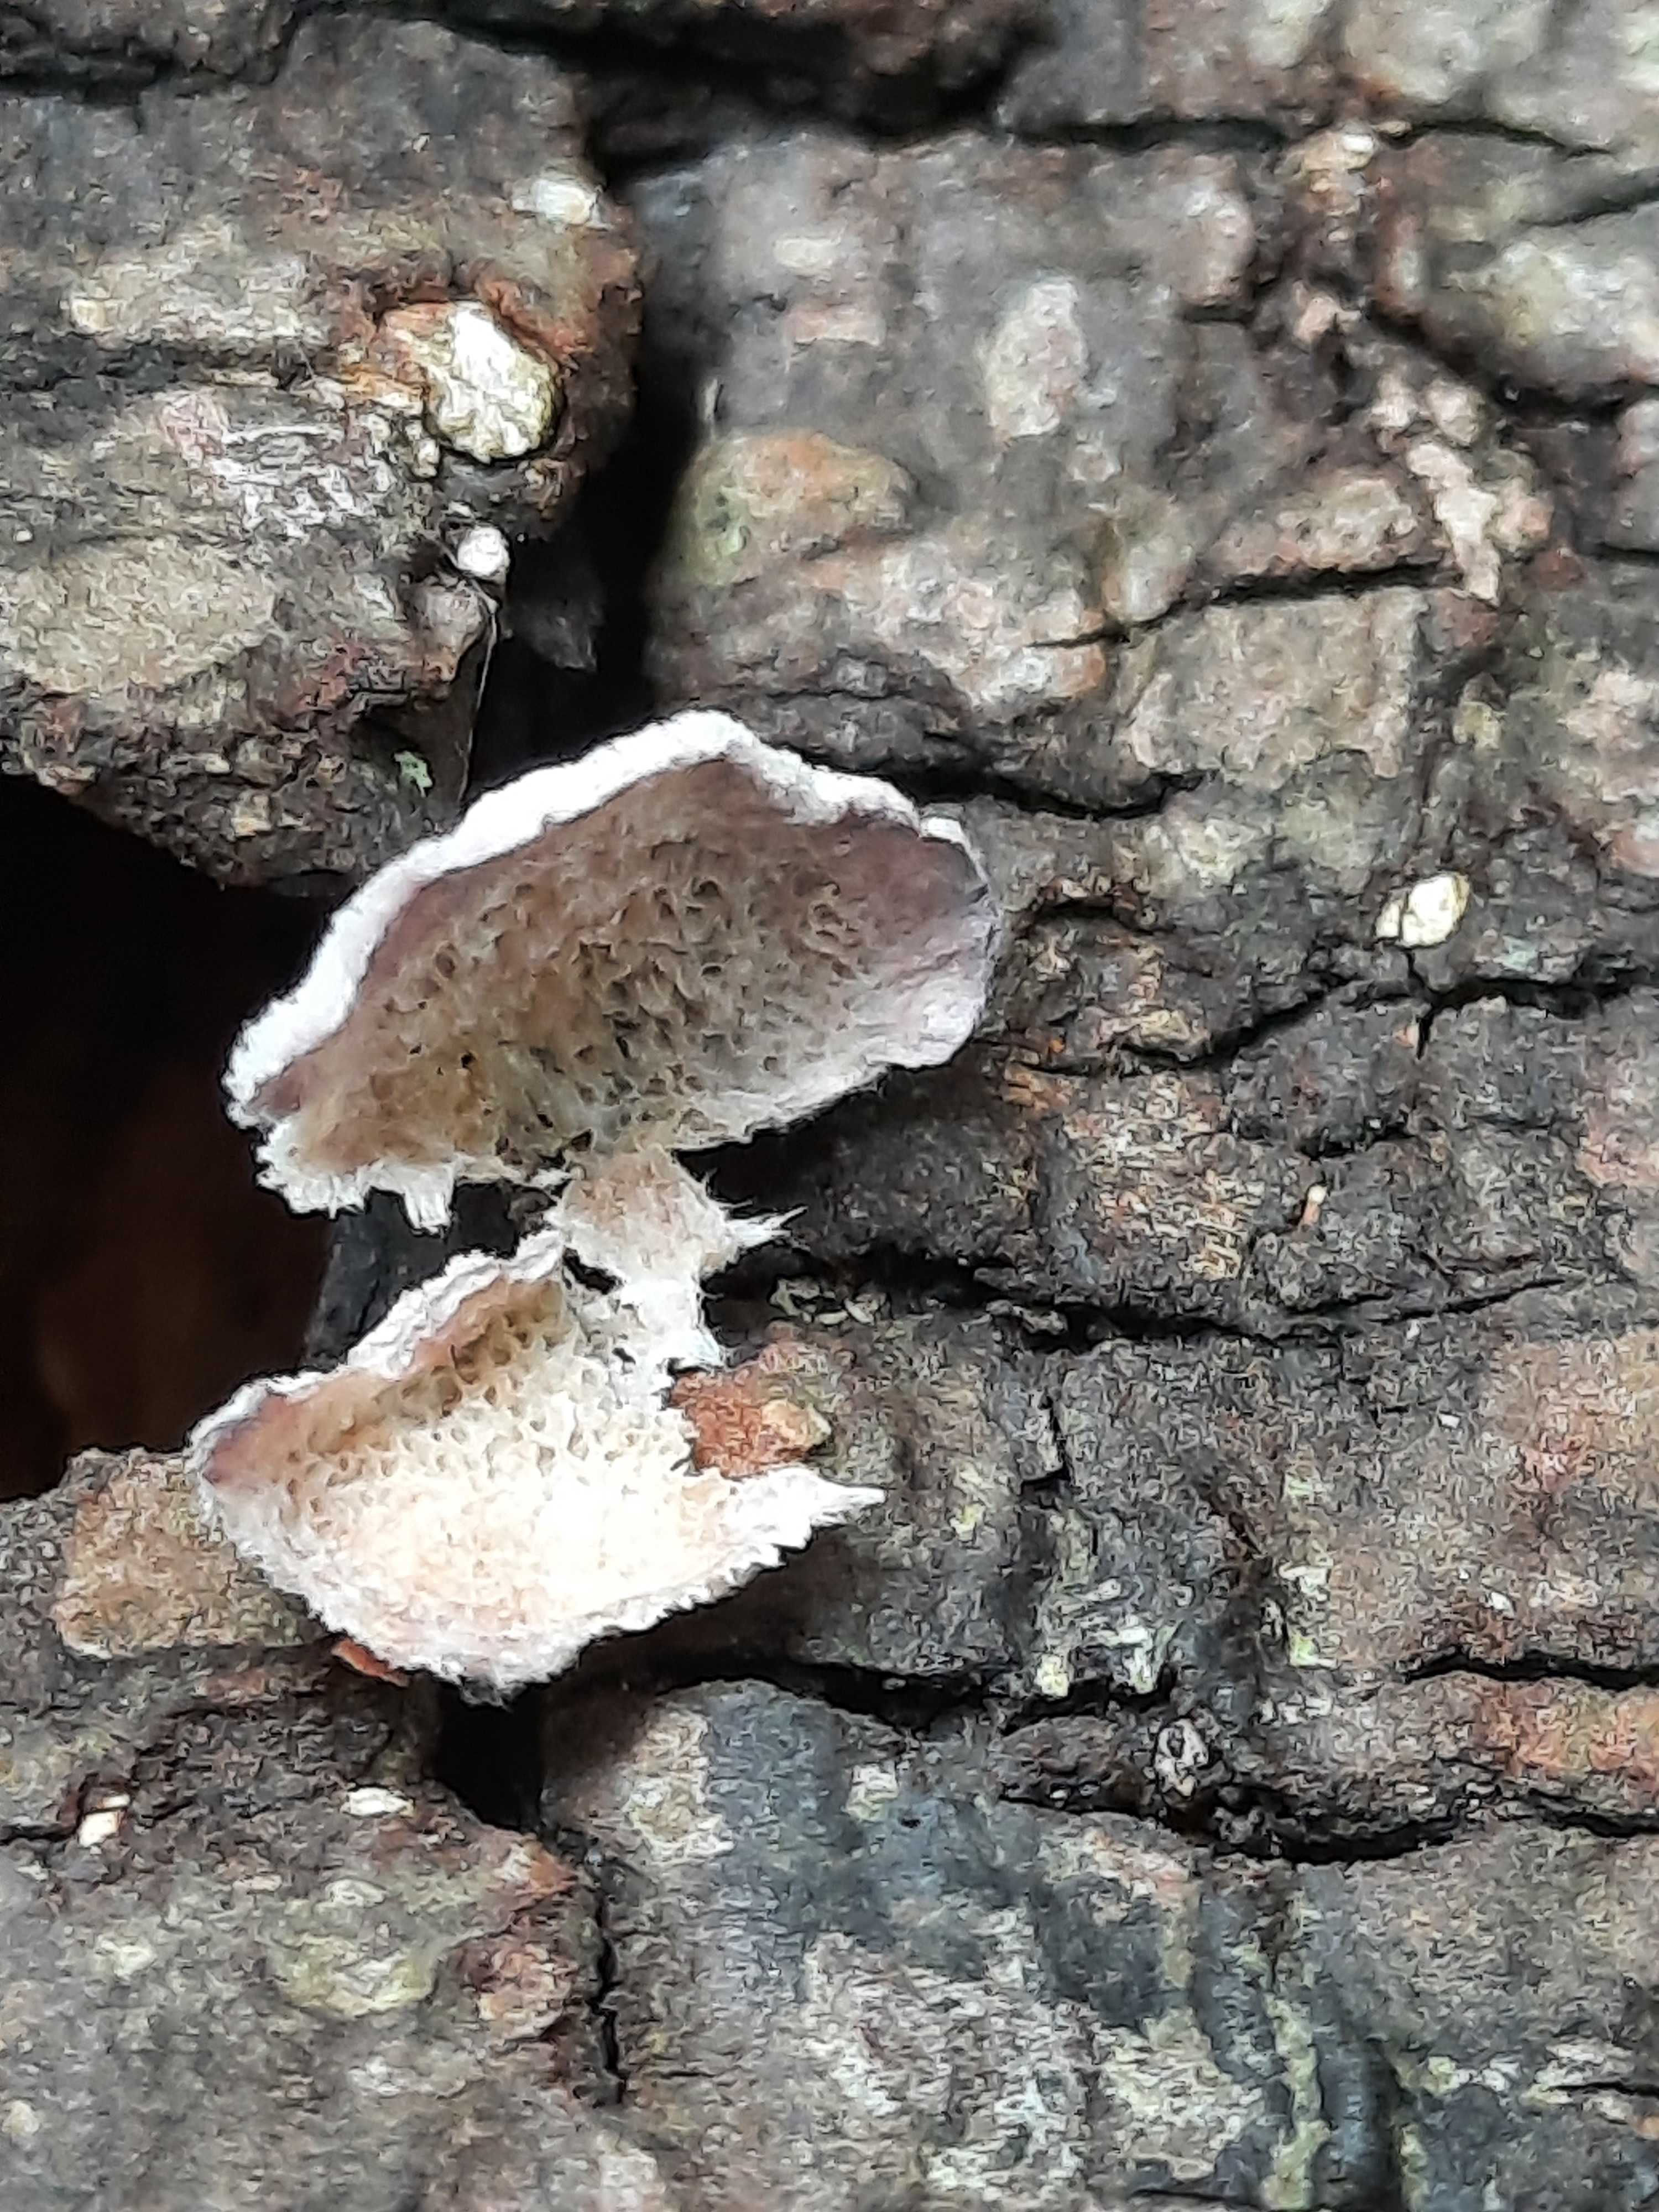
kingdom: Fungi
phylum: Basidiomycota
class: Agaricomycetes
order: Hymenochaetales
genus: Trichaptum
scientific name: Trichaptum abietinum
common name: almindelig violporesvamp
